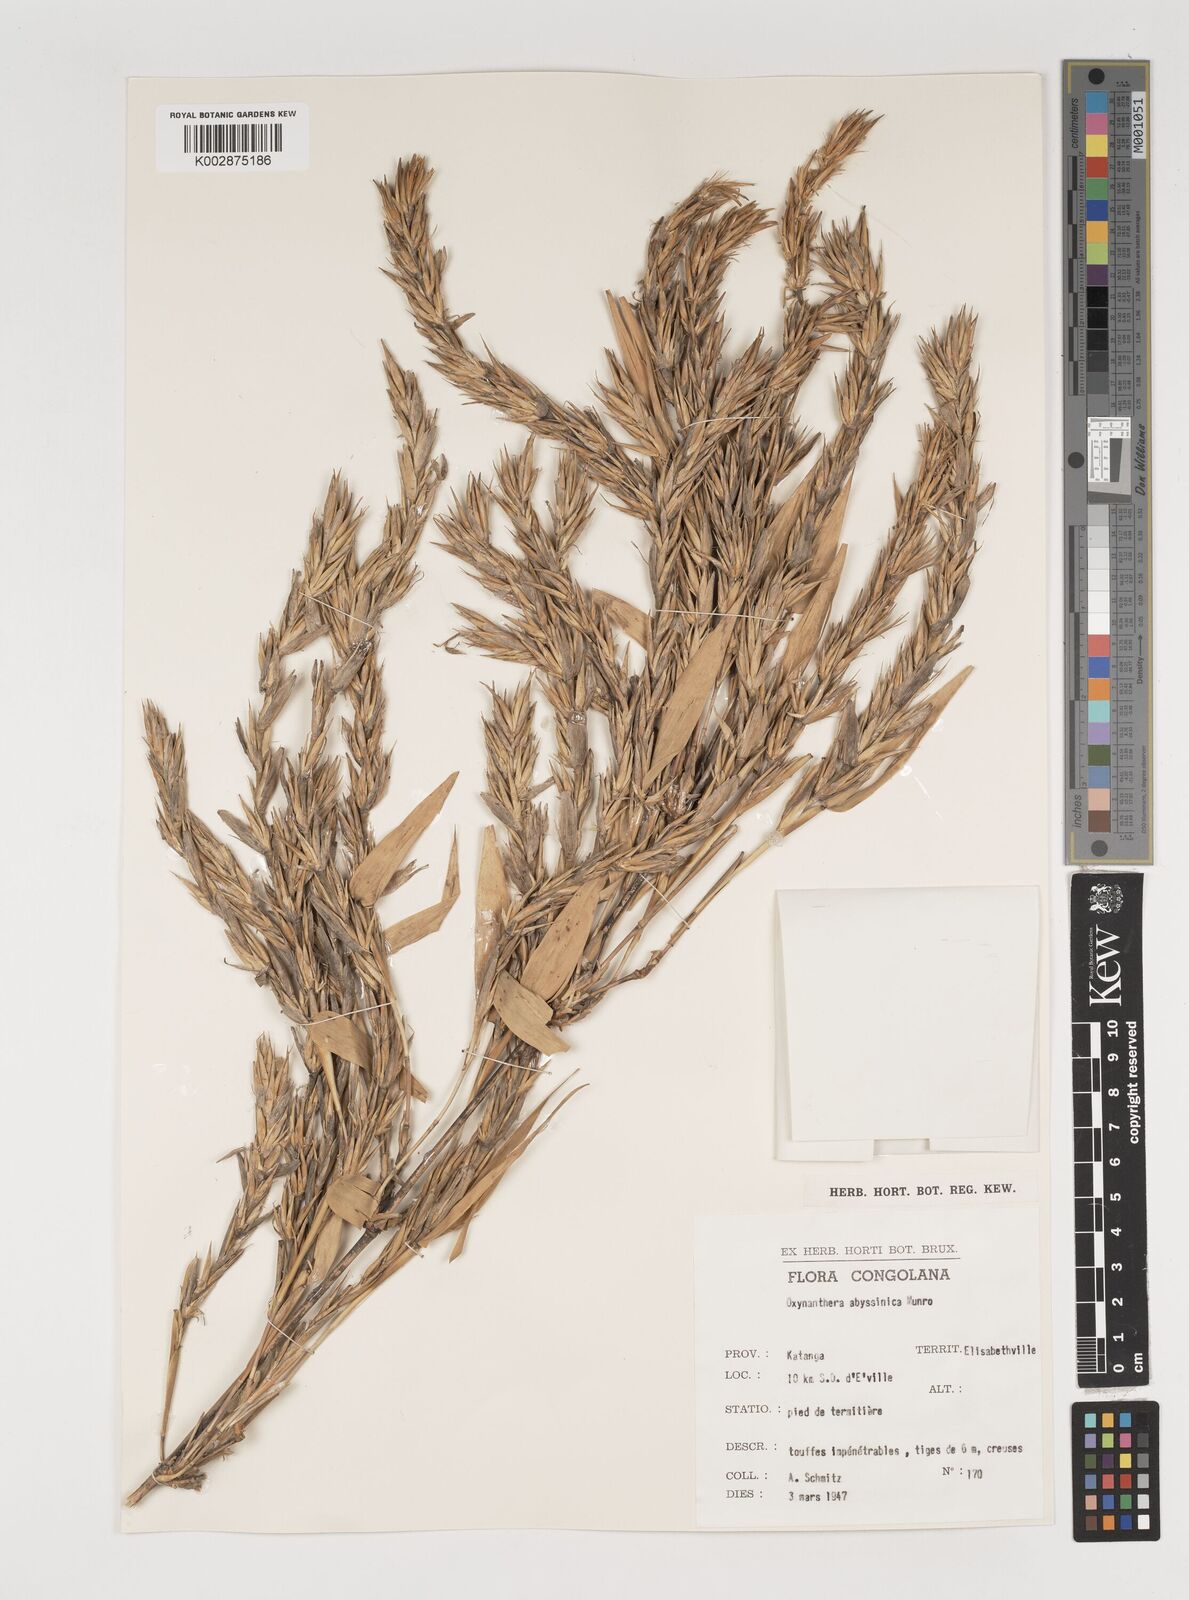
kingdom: Plantae
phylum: Tracheophyta
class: Liliopsida
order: Poales
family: Poaceae
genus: Oxytenanthera
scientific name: Oxytenanthera abyssinica
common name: Wine bamboo
